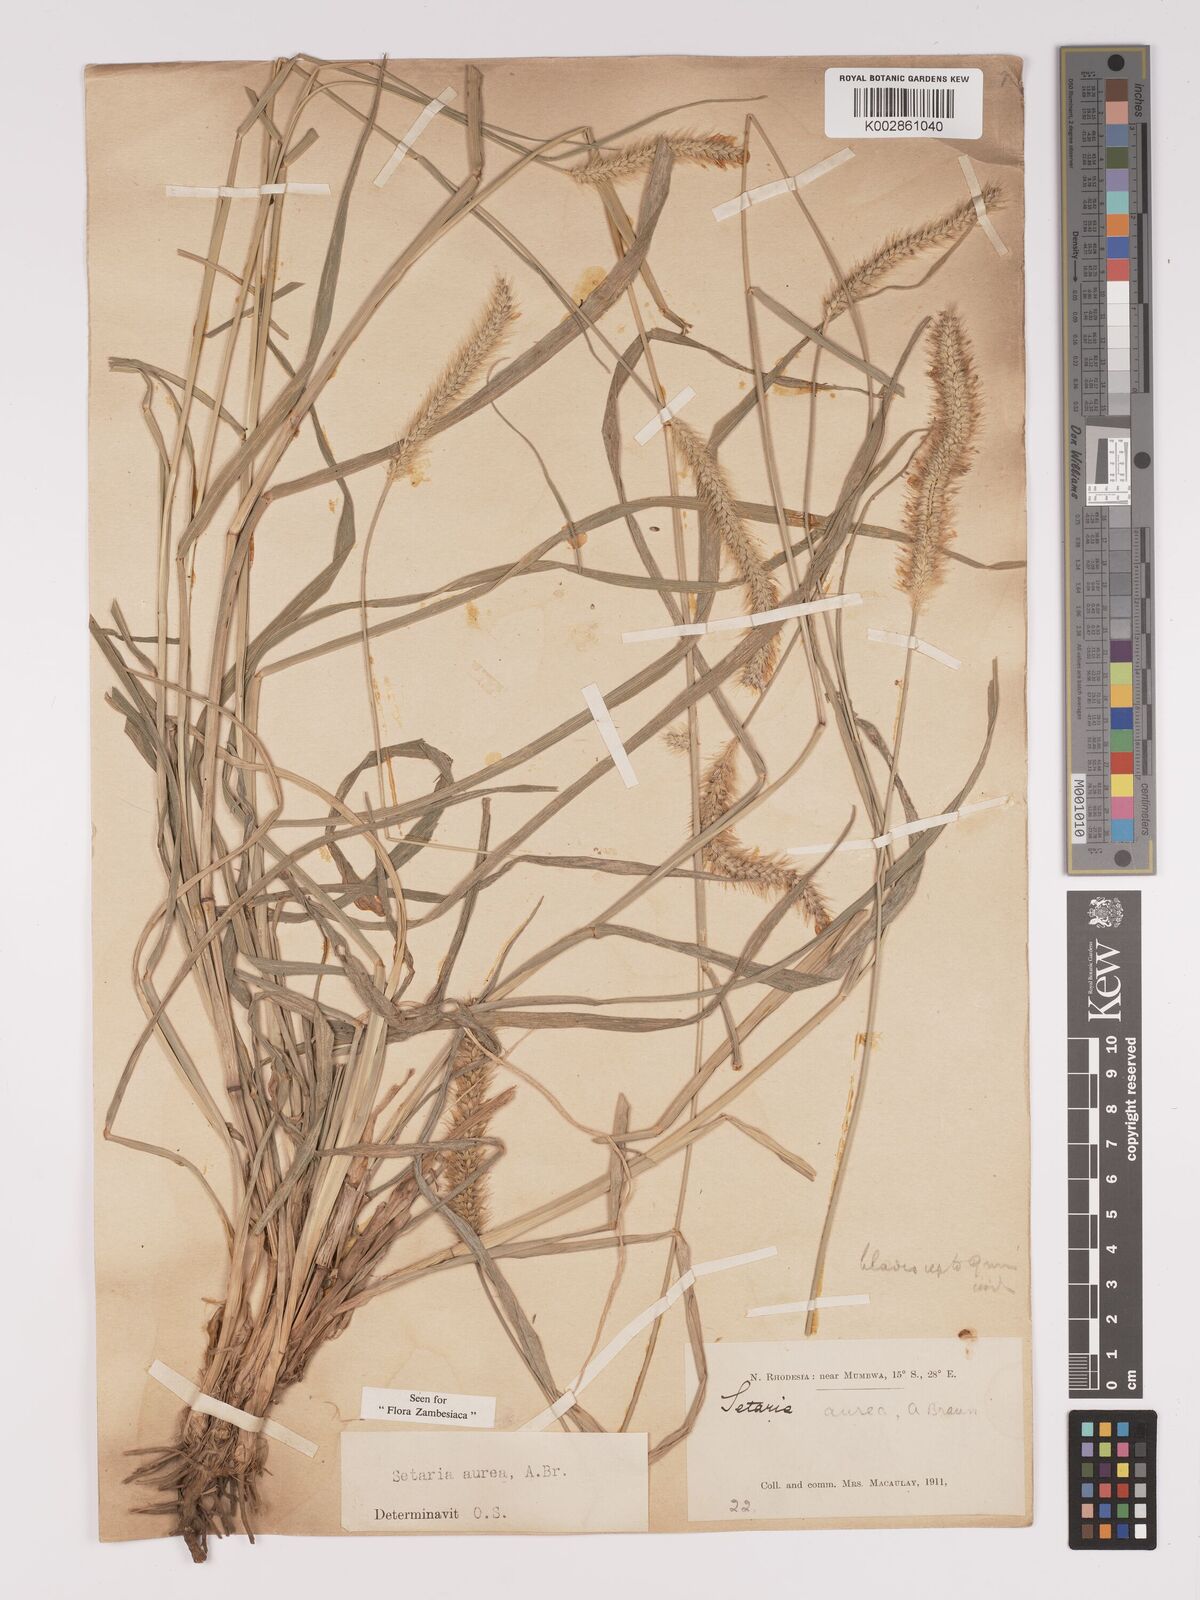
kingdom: Plantae
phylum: Tracheophyta
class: Liliopsida
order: Poales
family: Poaceae
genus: Setaria
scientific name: Setaria sphacelata
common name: African bristlegrass
